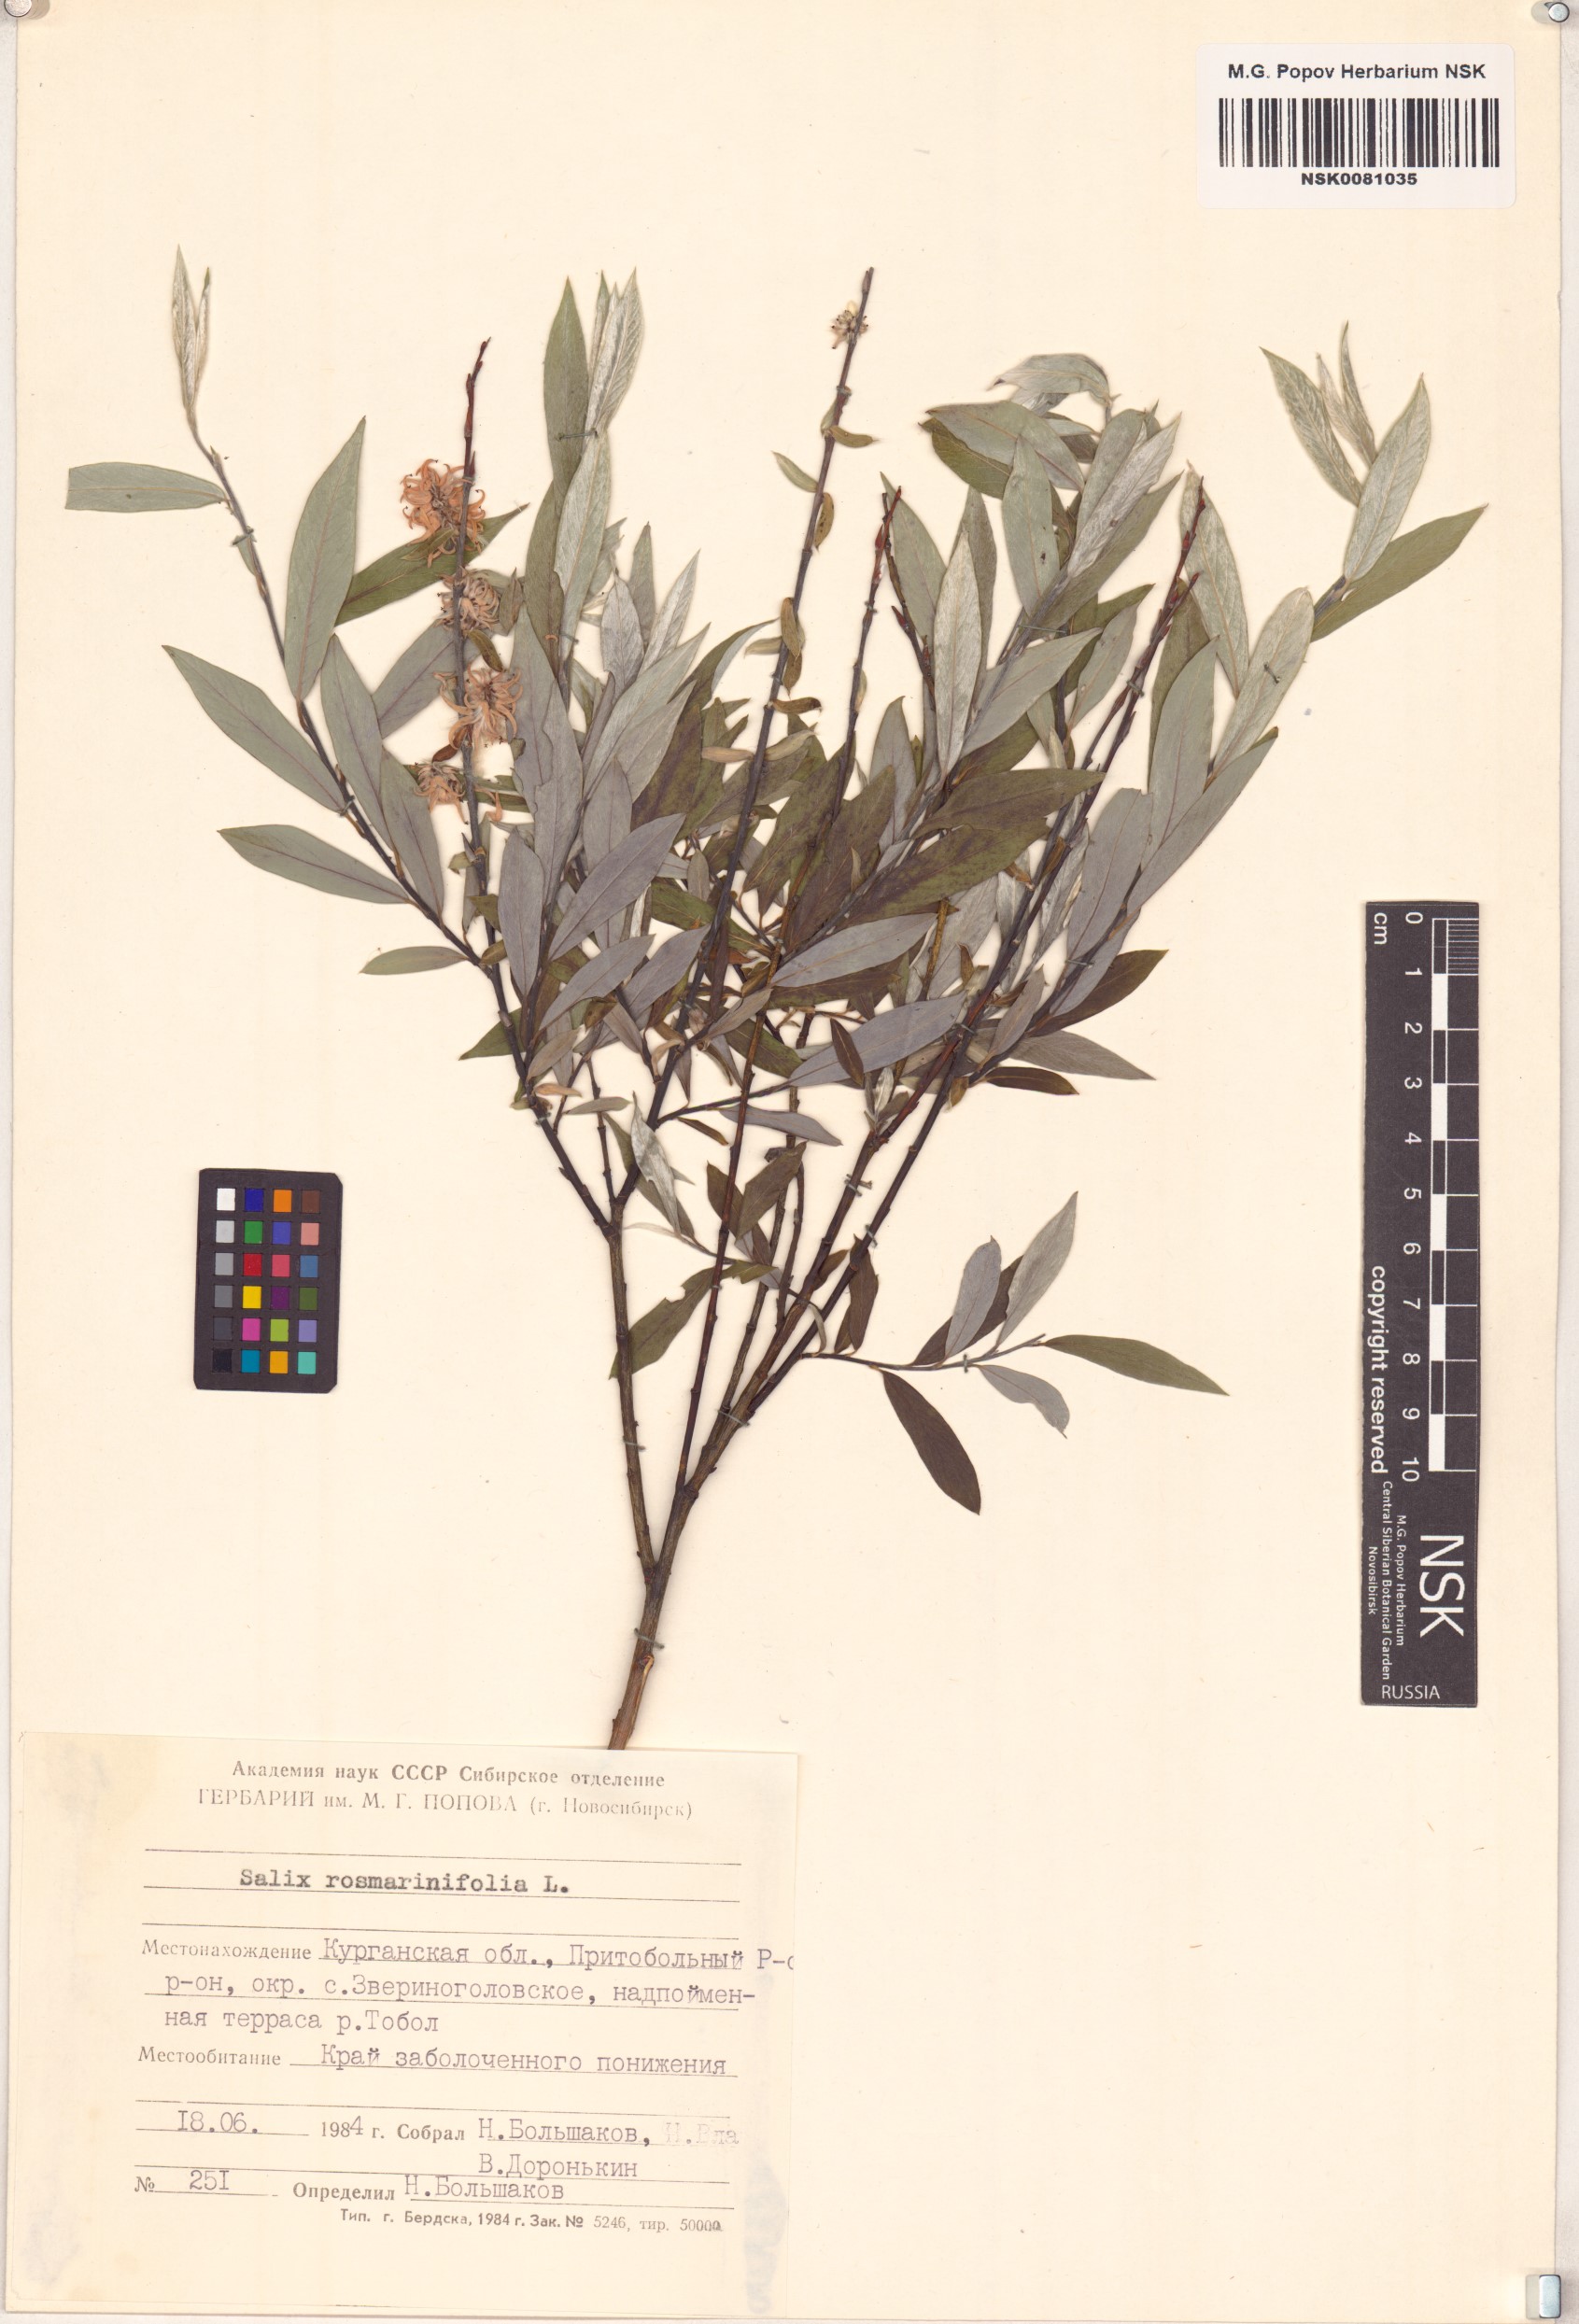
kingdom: Plantae
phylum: Tracheophyta
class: Magnoliopsida
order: Malpighiales
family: Salicaceae
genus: Salix
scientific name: Salix rosmarinifolia
